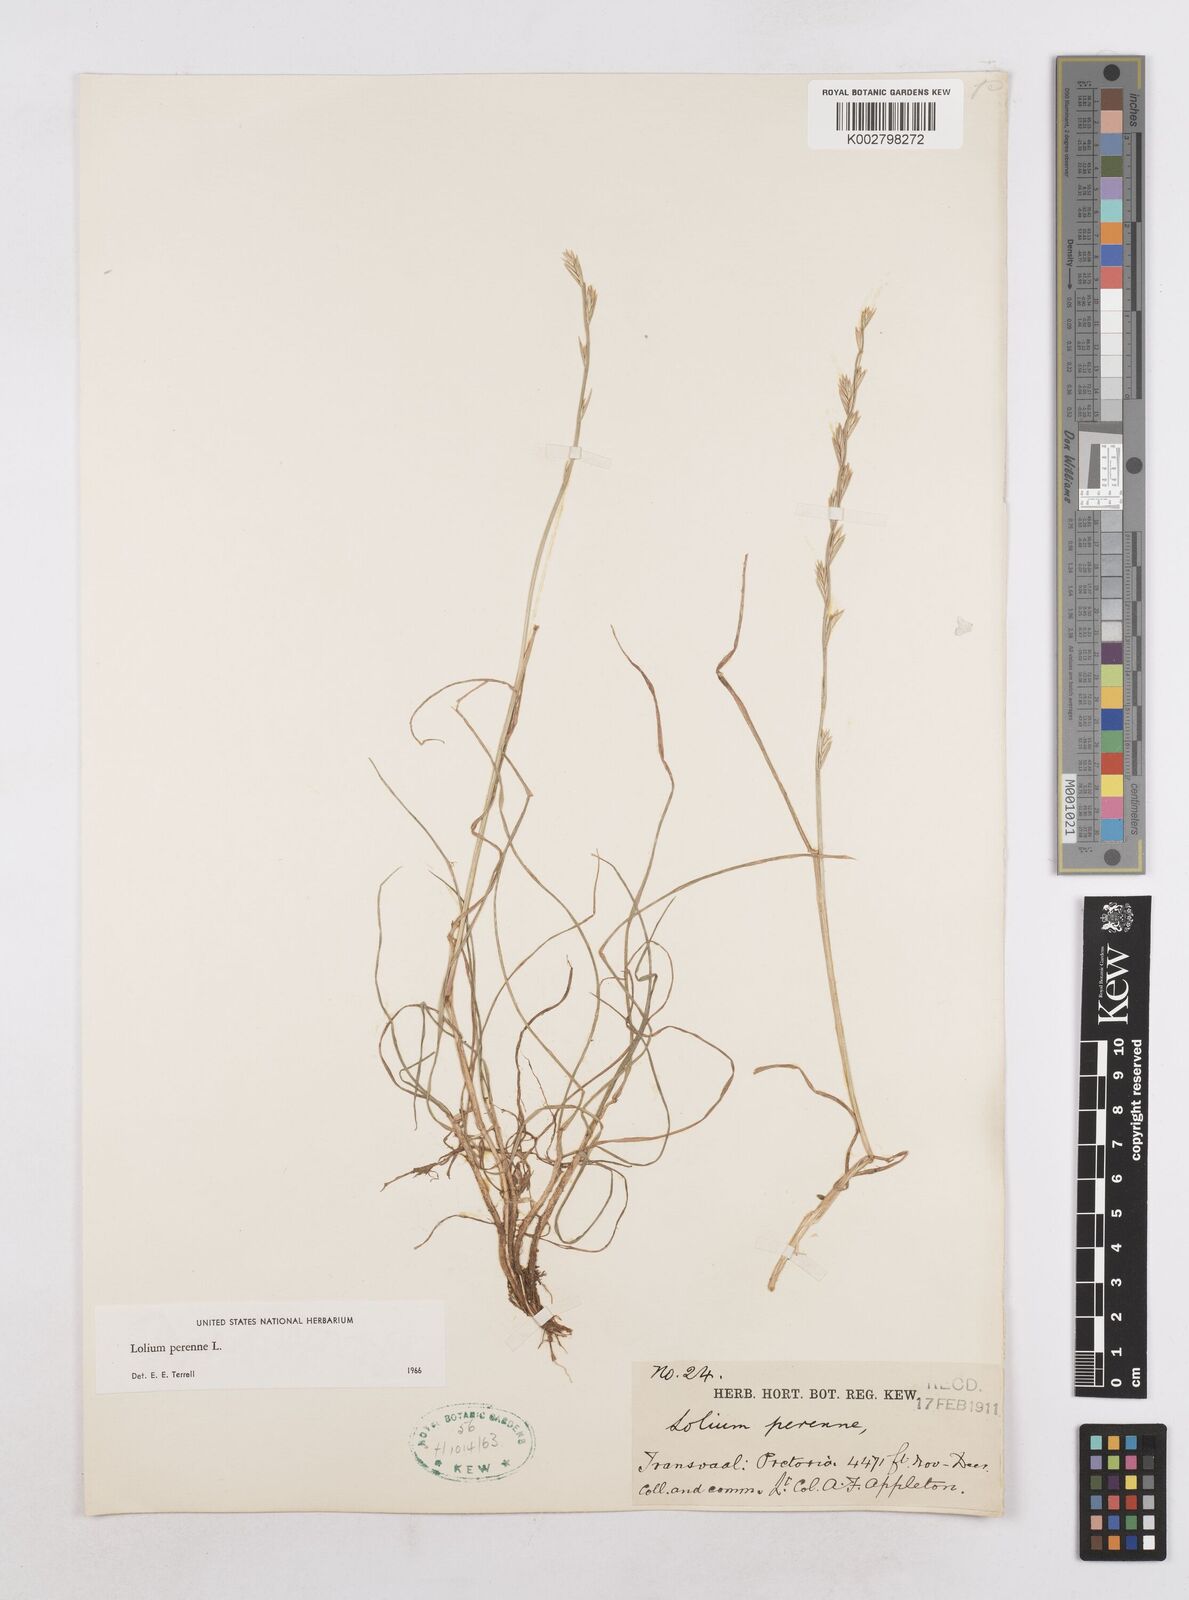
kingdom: Plantae
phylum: Tracheophyta
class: Liliopsida
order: Poales
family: Poaceae
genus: Lolium
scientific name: Lolium perenne
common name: Perennial ryegrass
